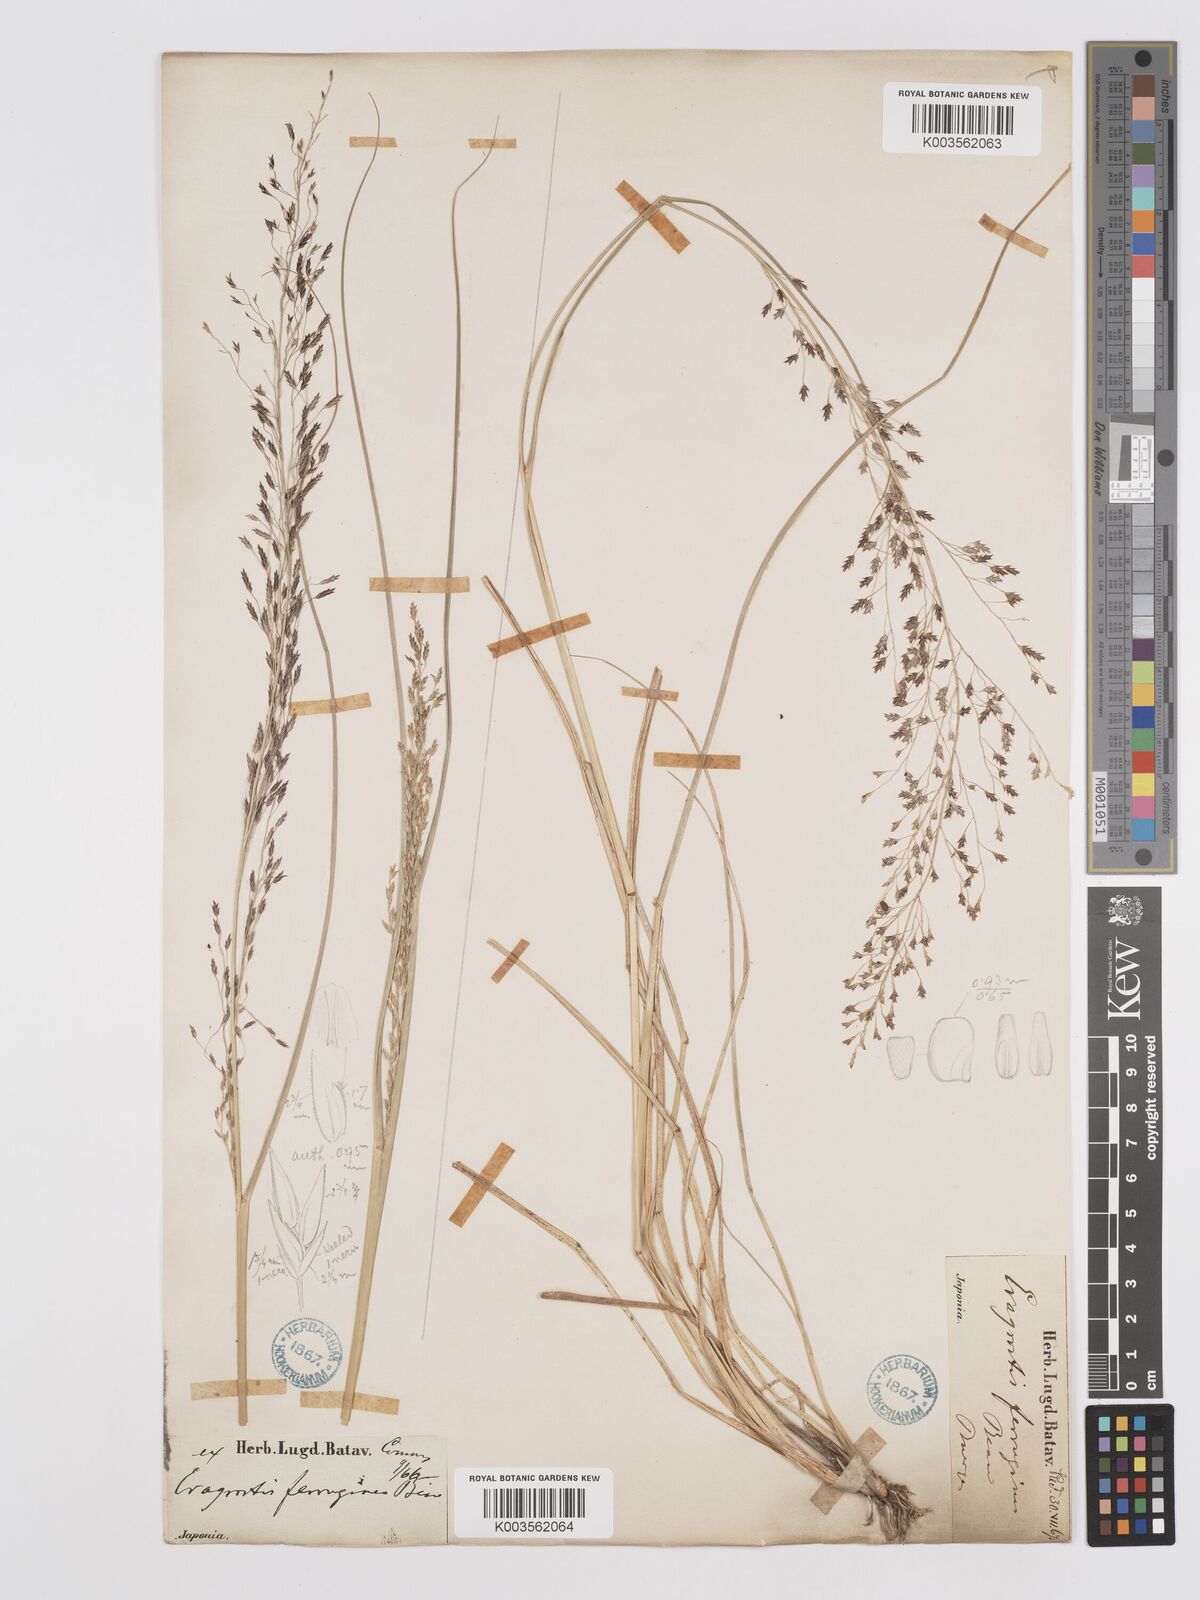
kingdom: Plantae
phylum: Tracheophyta
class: Liliopsida
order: Poales
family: Poaceae
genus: Eragrostis
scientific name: Eragrostis ferruginea
